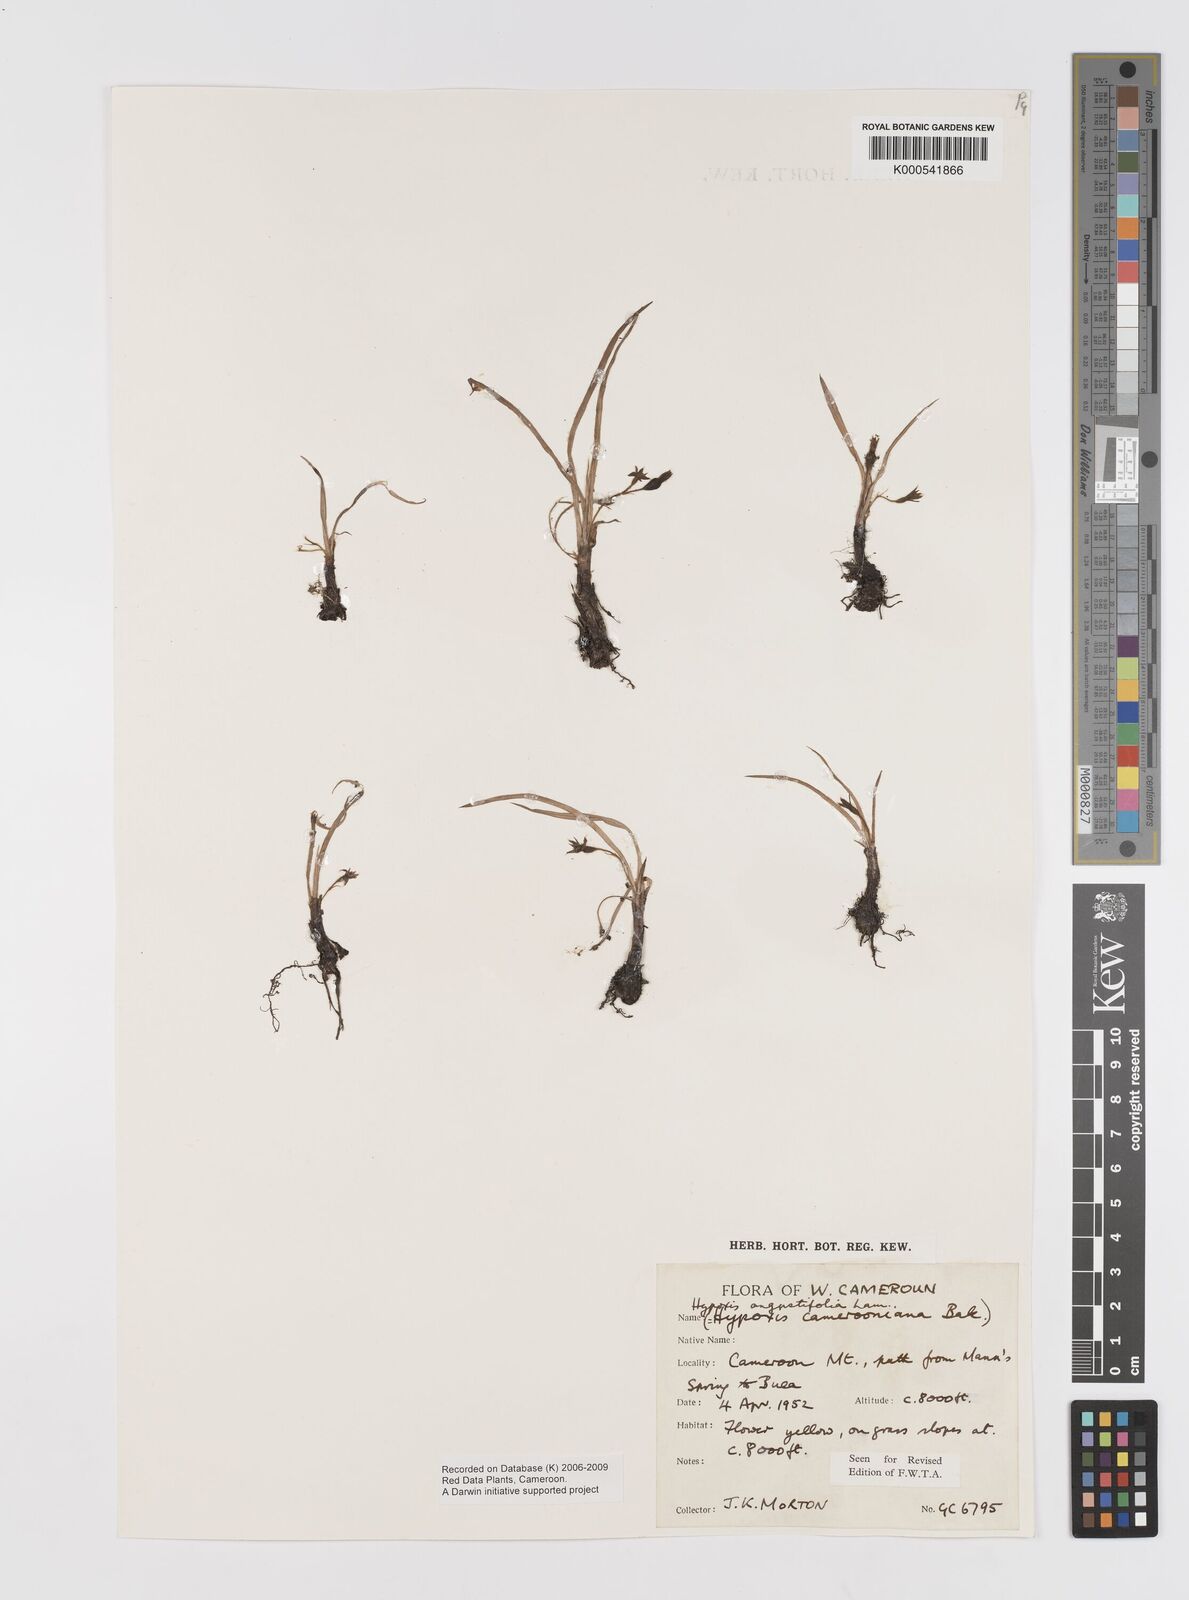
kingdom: Plantae
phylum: Tracheophyta
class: Liliopsida
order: Asparagales
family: Hypoxidaceae
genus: Hypoxis
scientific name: Hypoxis camerooniana
